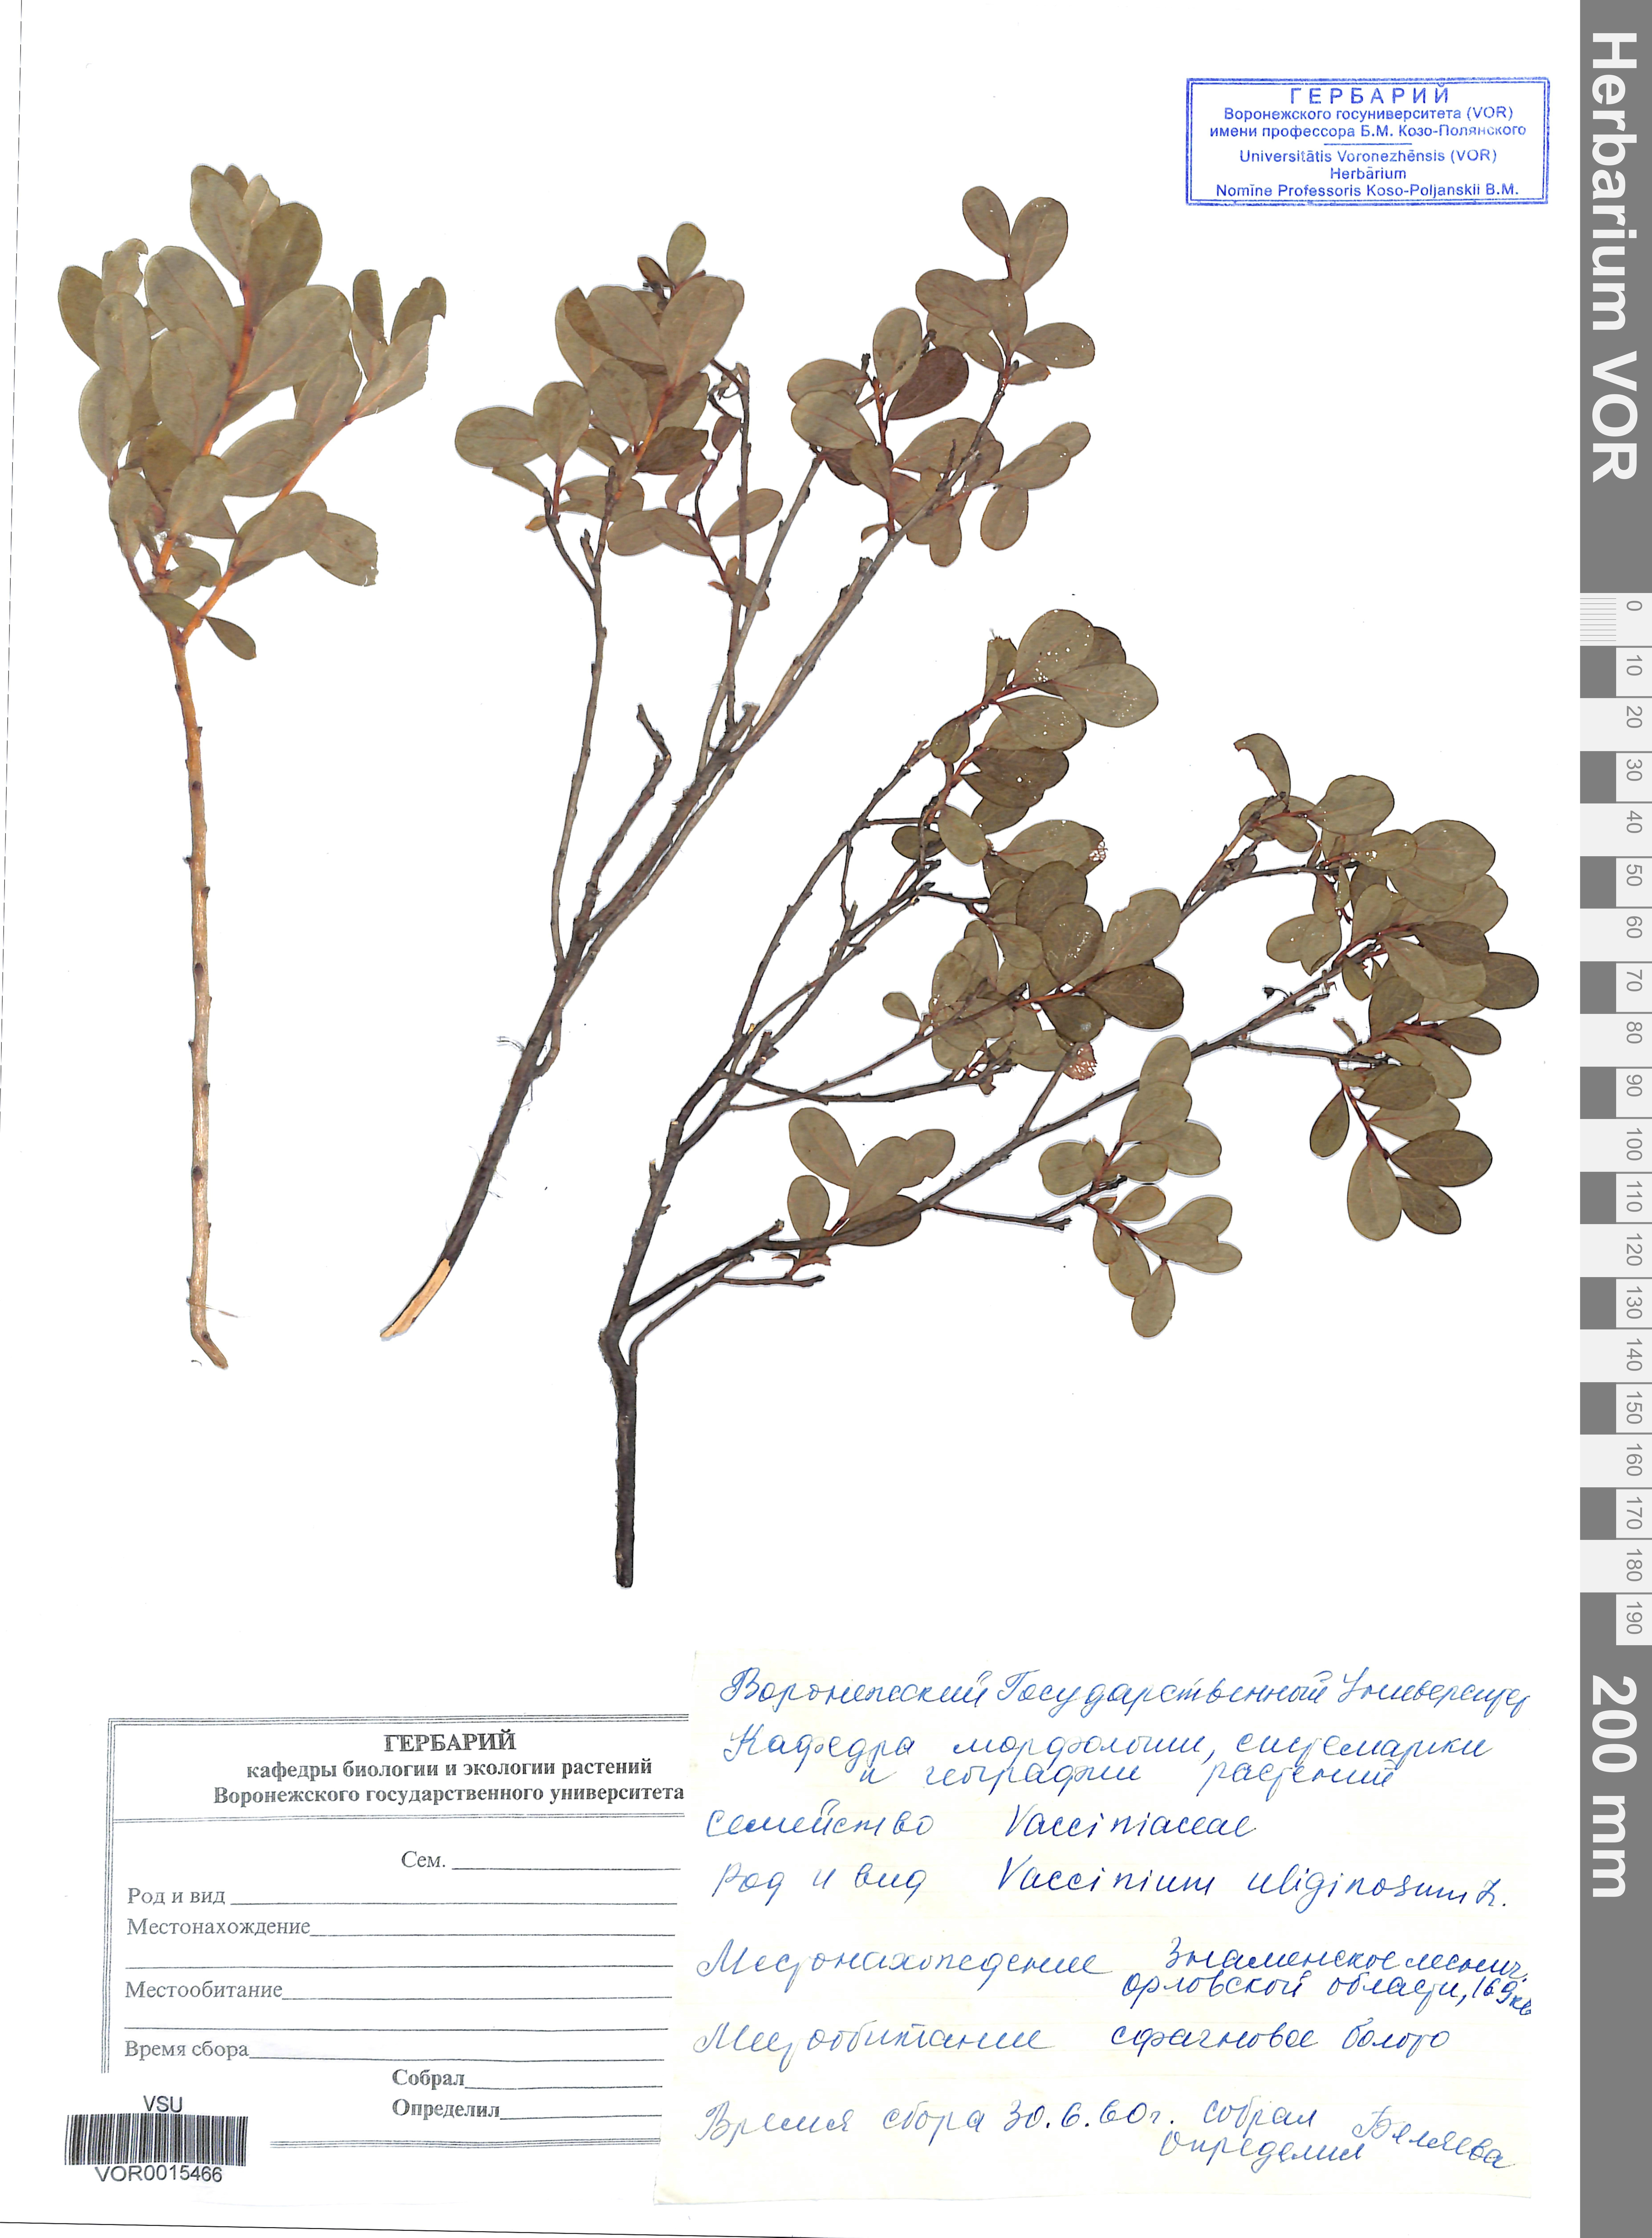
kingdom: Plantae
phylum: Tracheophyta
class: Magnoliopsida
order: Ericales
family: Ericaceae
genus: Vaccinium
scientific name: Vaccinium uliginosum
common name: Bog bilberry
